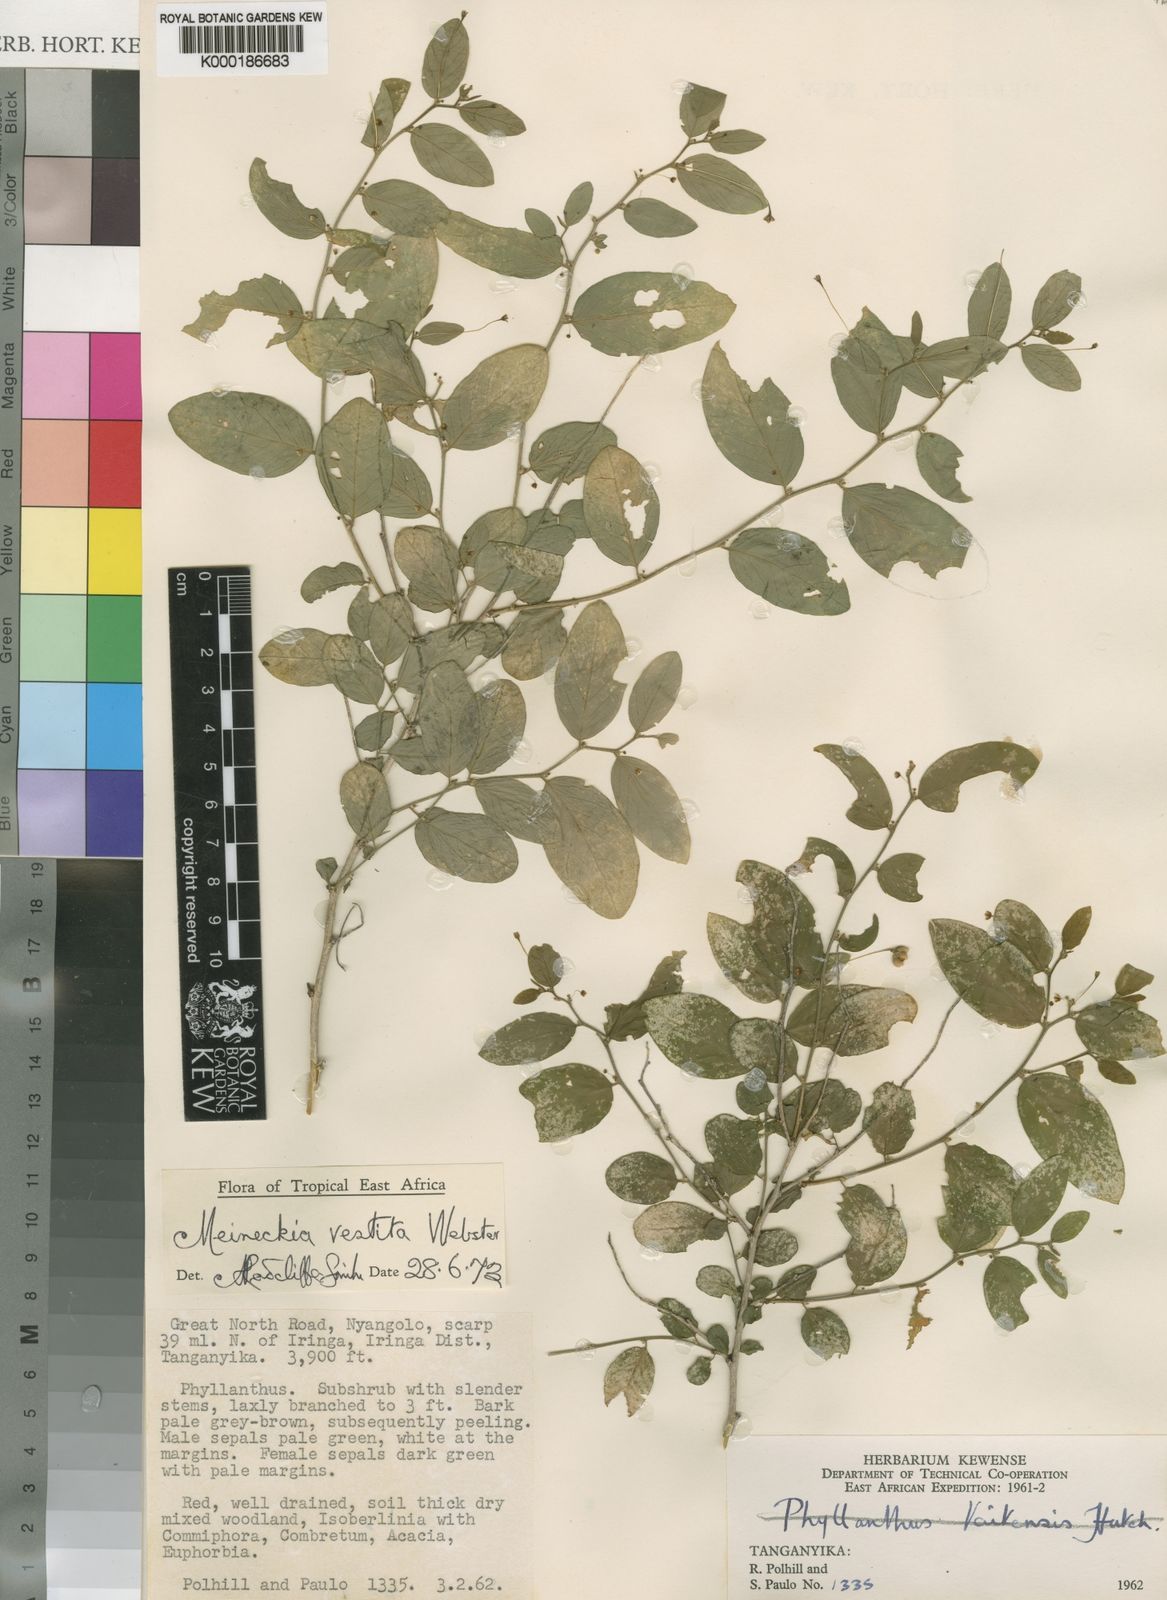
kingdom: Plantae
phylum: Tracheophyta
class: Magnoliopsida
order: Malpighiales
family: Phyllanthaceae
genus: Meineckia
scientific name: Meineckia vestita
